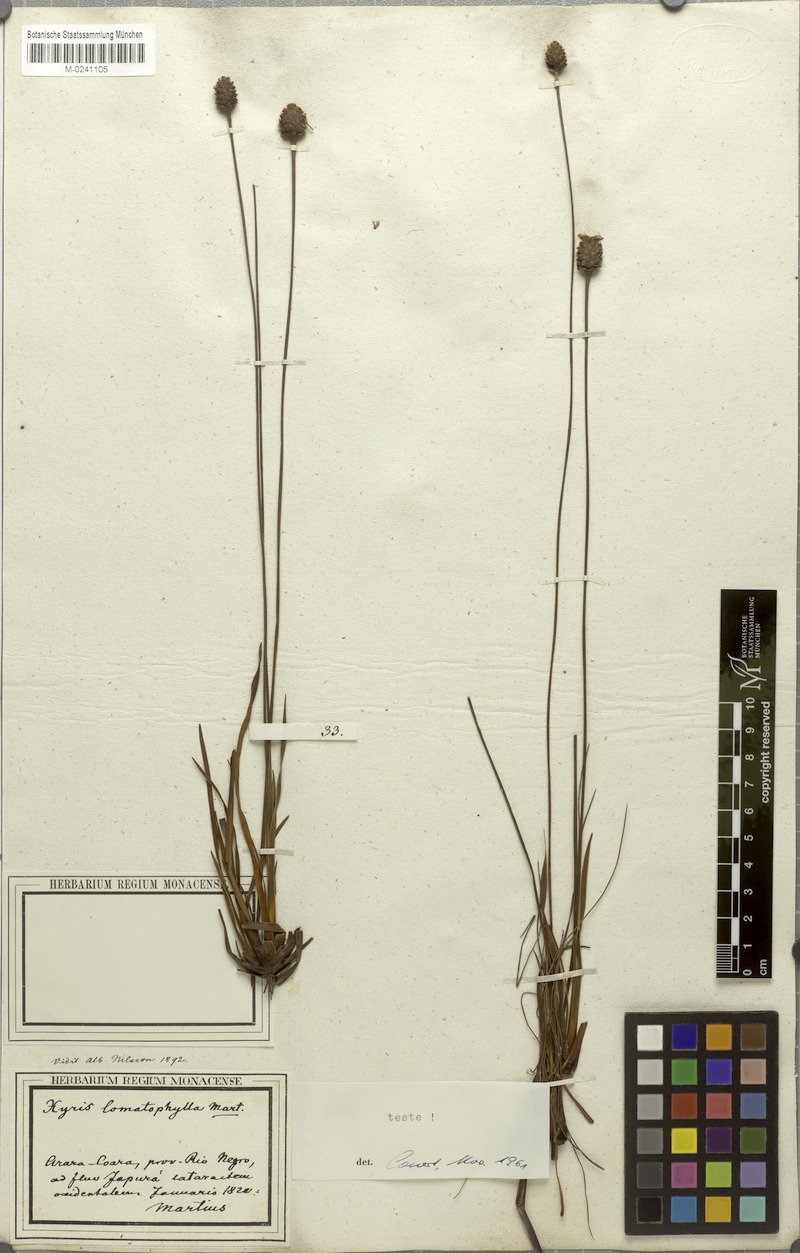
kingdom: Plantae
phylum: Tracheophyta
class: Liliopsida
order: Poales
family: Xyridaceae
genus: Xyris
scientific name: Xyris lomatophylla
